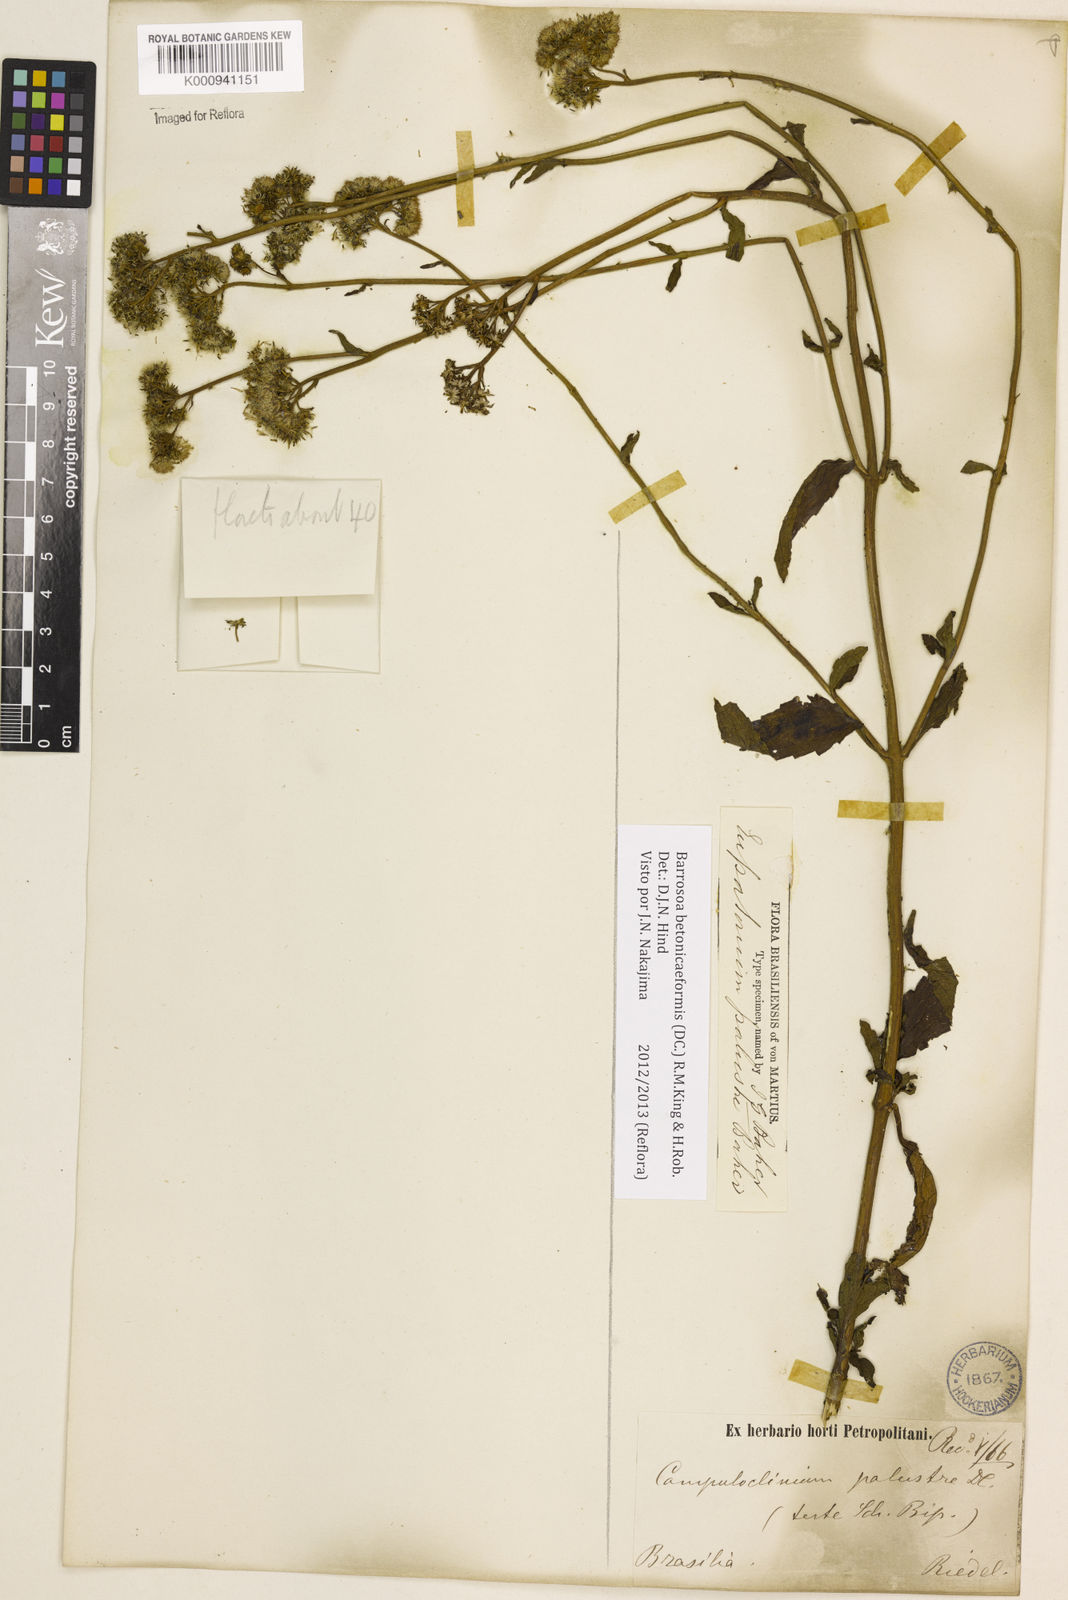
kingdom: Plantae
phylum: Tracheophyta
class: Magnoliopsida
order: Asterales
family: Asteraceae
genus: Barrosoa
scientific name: Barrosoa betoniciformis
